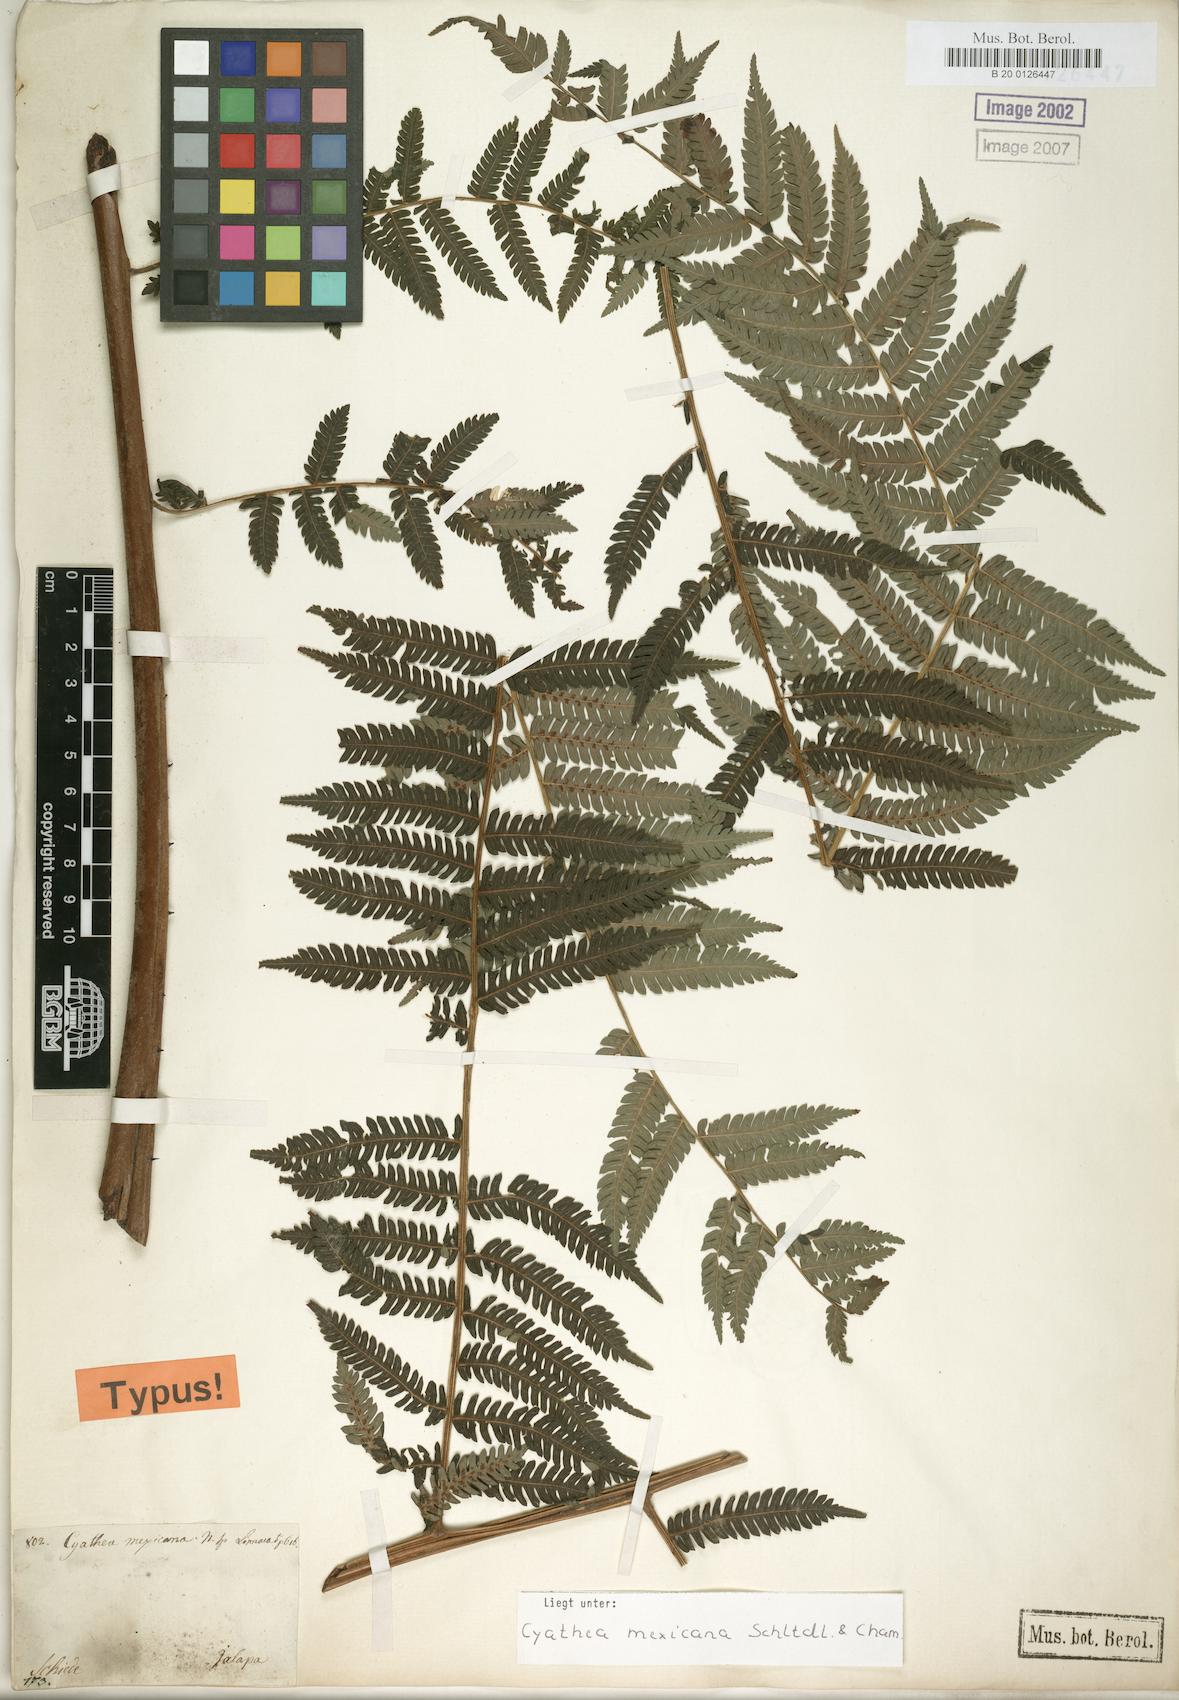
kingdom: Plantae
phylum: Tracheophyta
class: Polypodiopsida
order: Cyatheales
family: Cyatheaceae
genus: Alsophila
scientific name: Alsophila firma
